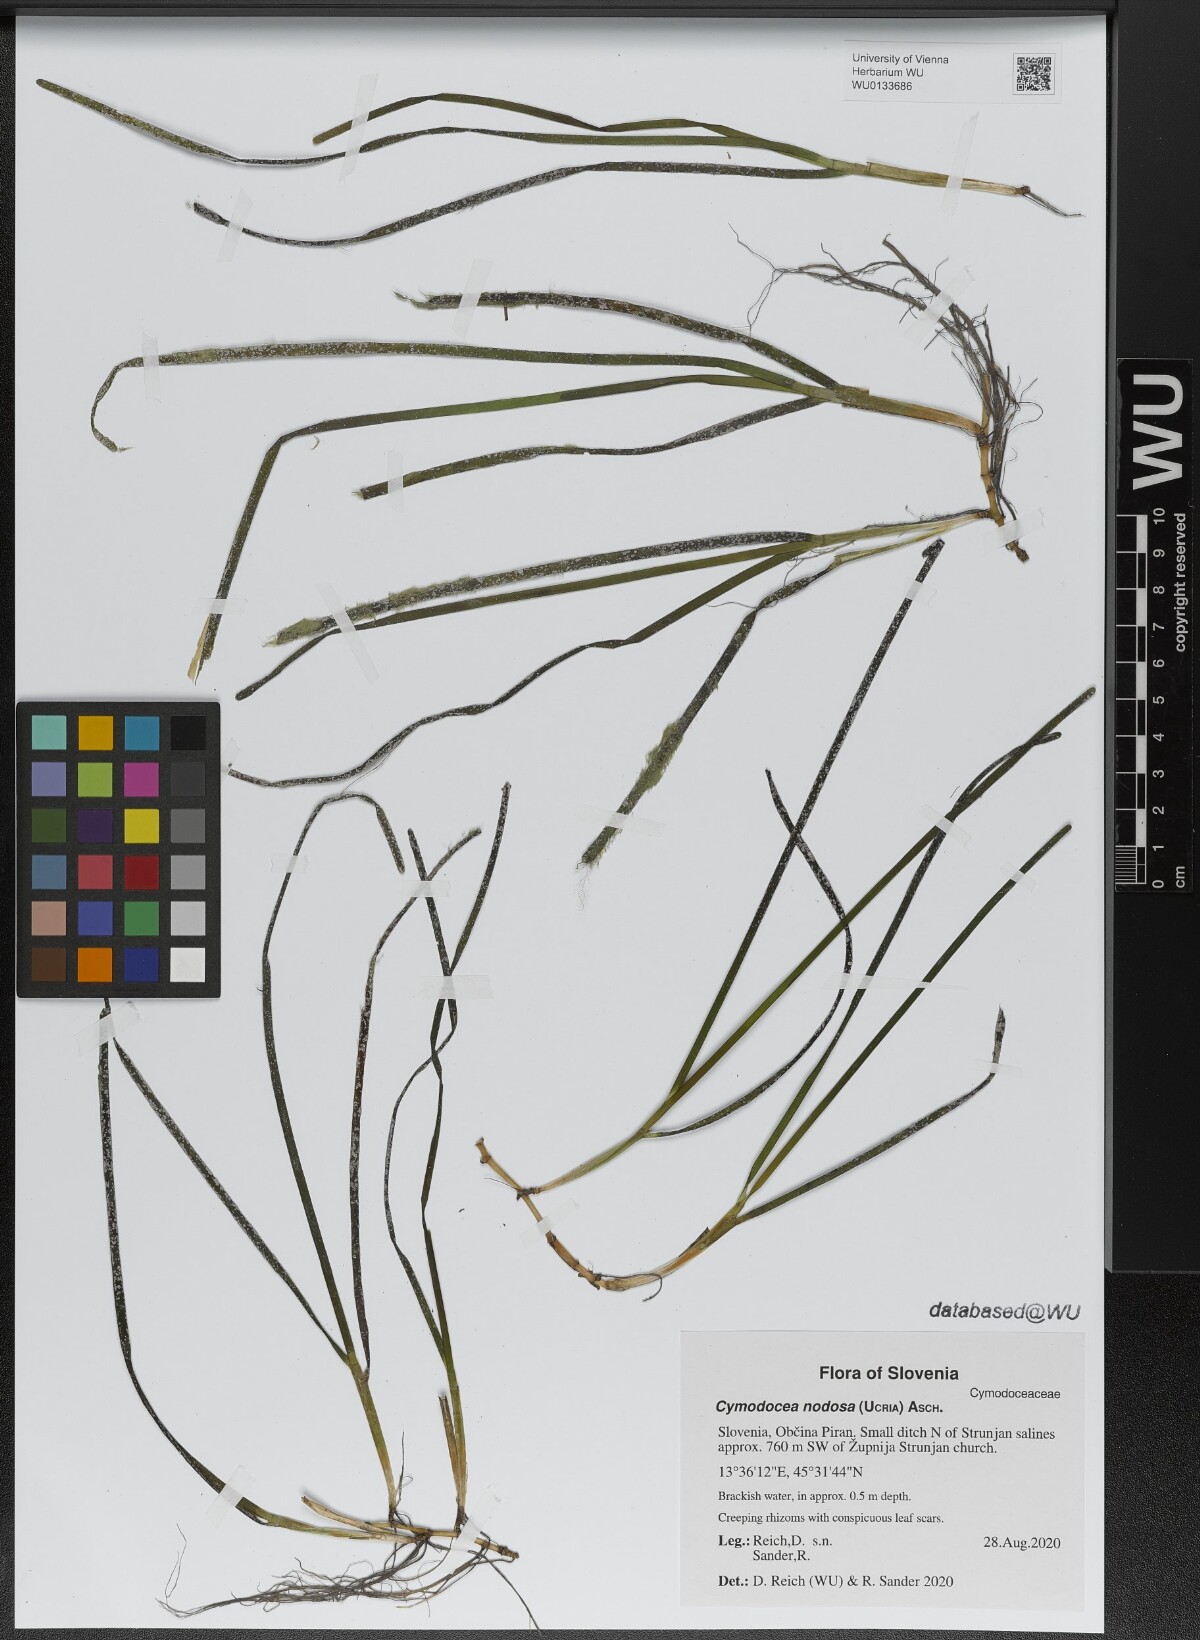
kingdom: Plantae
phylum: Tracheophyta
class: Liliopsida
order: Alismatales
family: Cymodoceaceae
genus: Cymodocea
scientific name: Cymodocea nodosa
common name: Slender seagrass
